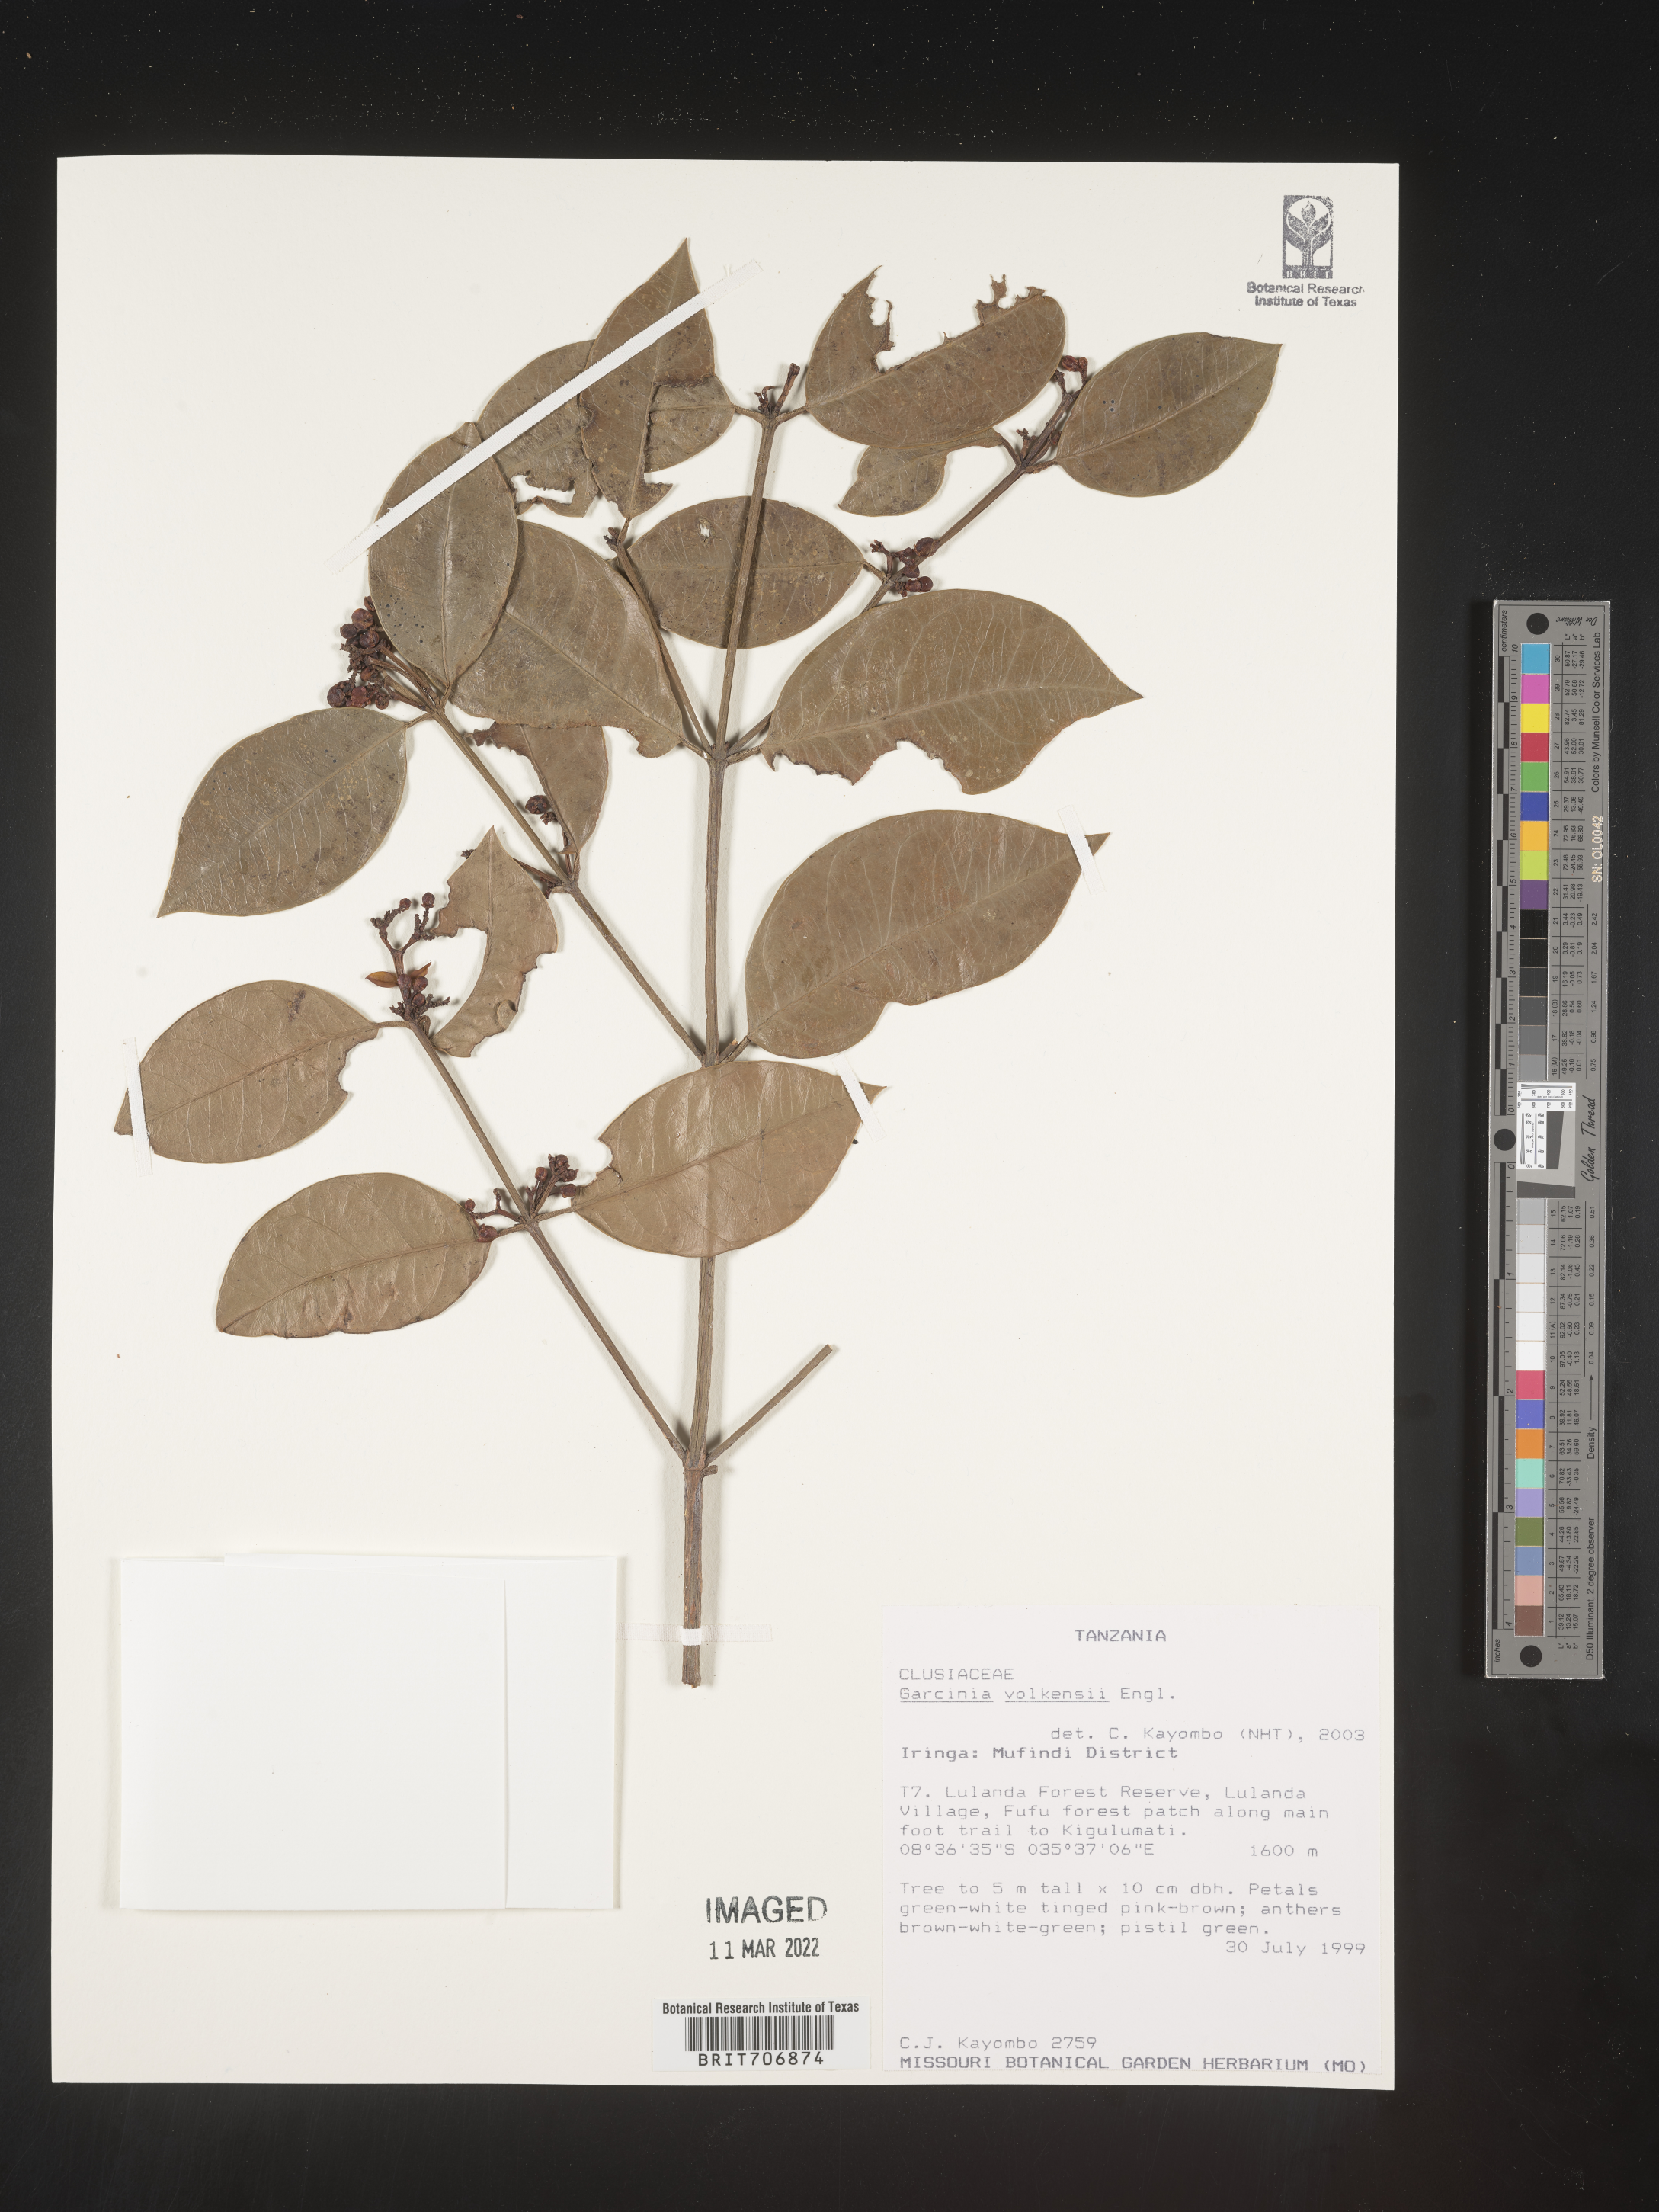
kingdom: Plantae
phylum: Tracheophyta
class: Magnoliopsida
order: Malpighiales
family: Clusiaceae
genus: Garcinia
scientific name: Garcinia
